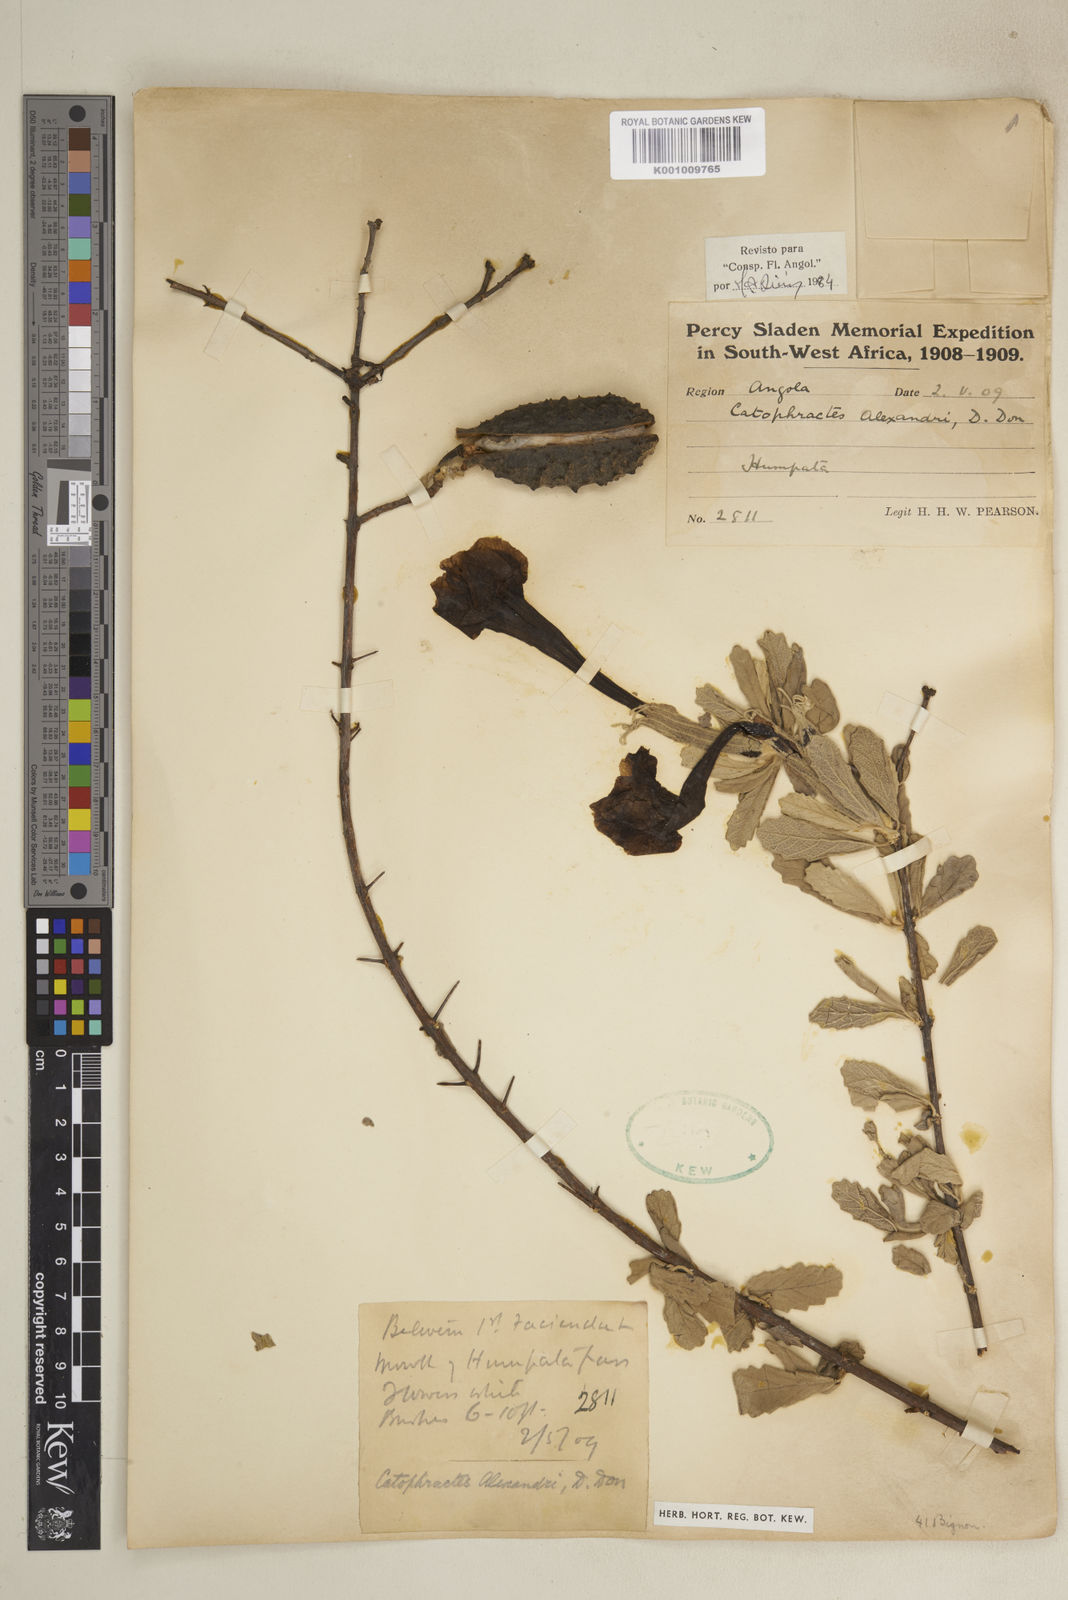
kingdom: Plantae
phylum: Tracheophyta
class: Magnoliopsida
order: Lamiales
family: Bignoniaceae
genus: Catophractes
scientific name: Catophractes alexandri
